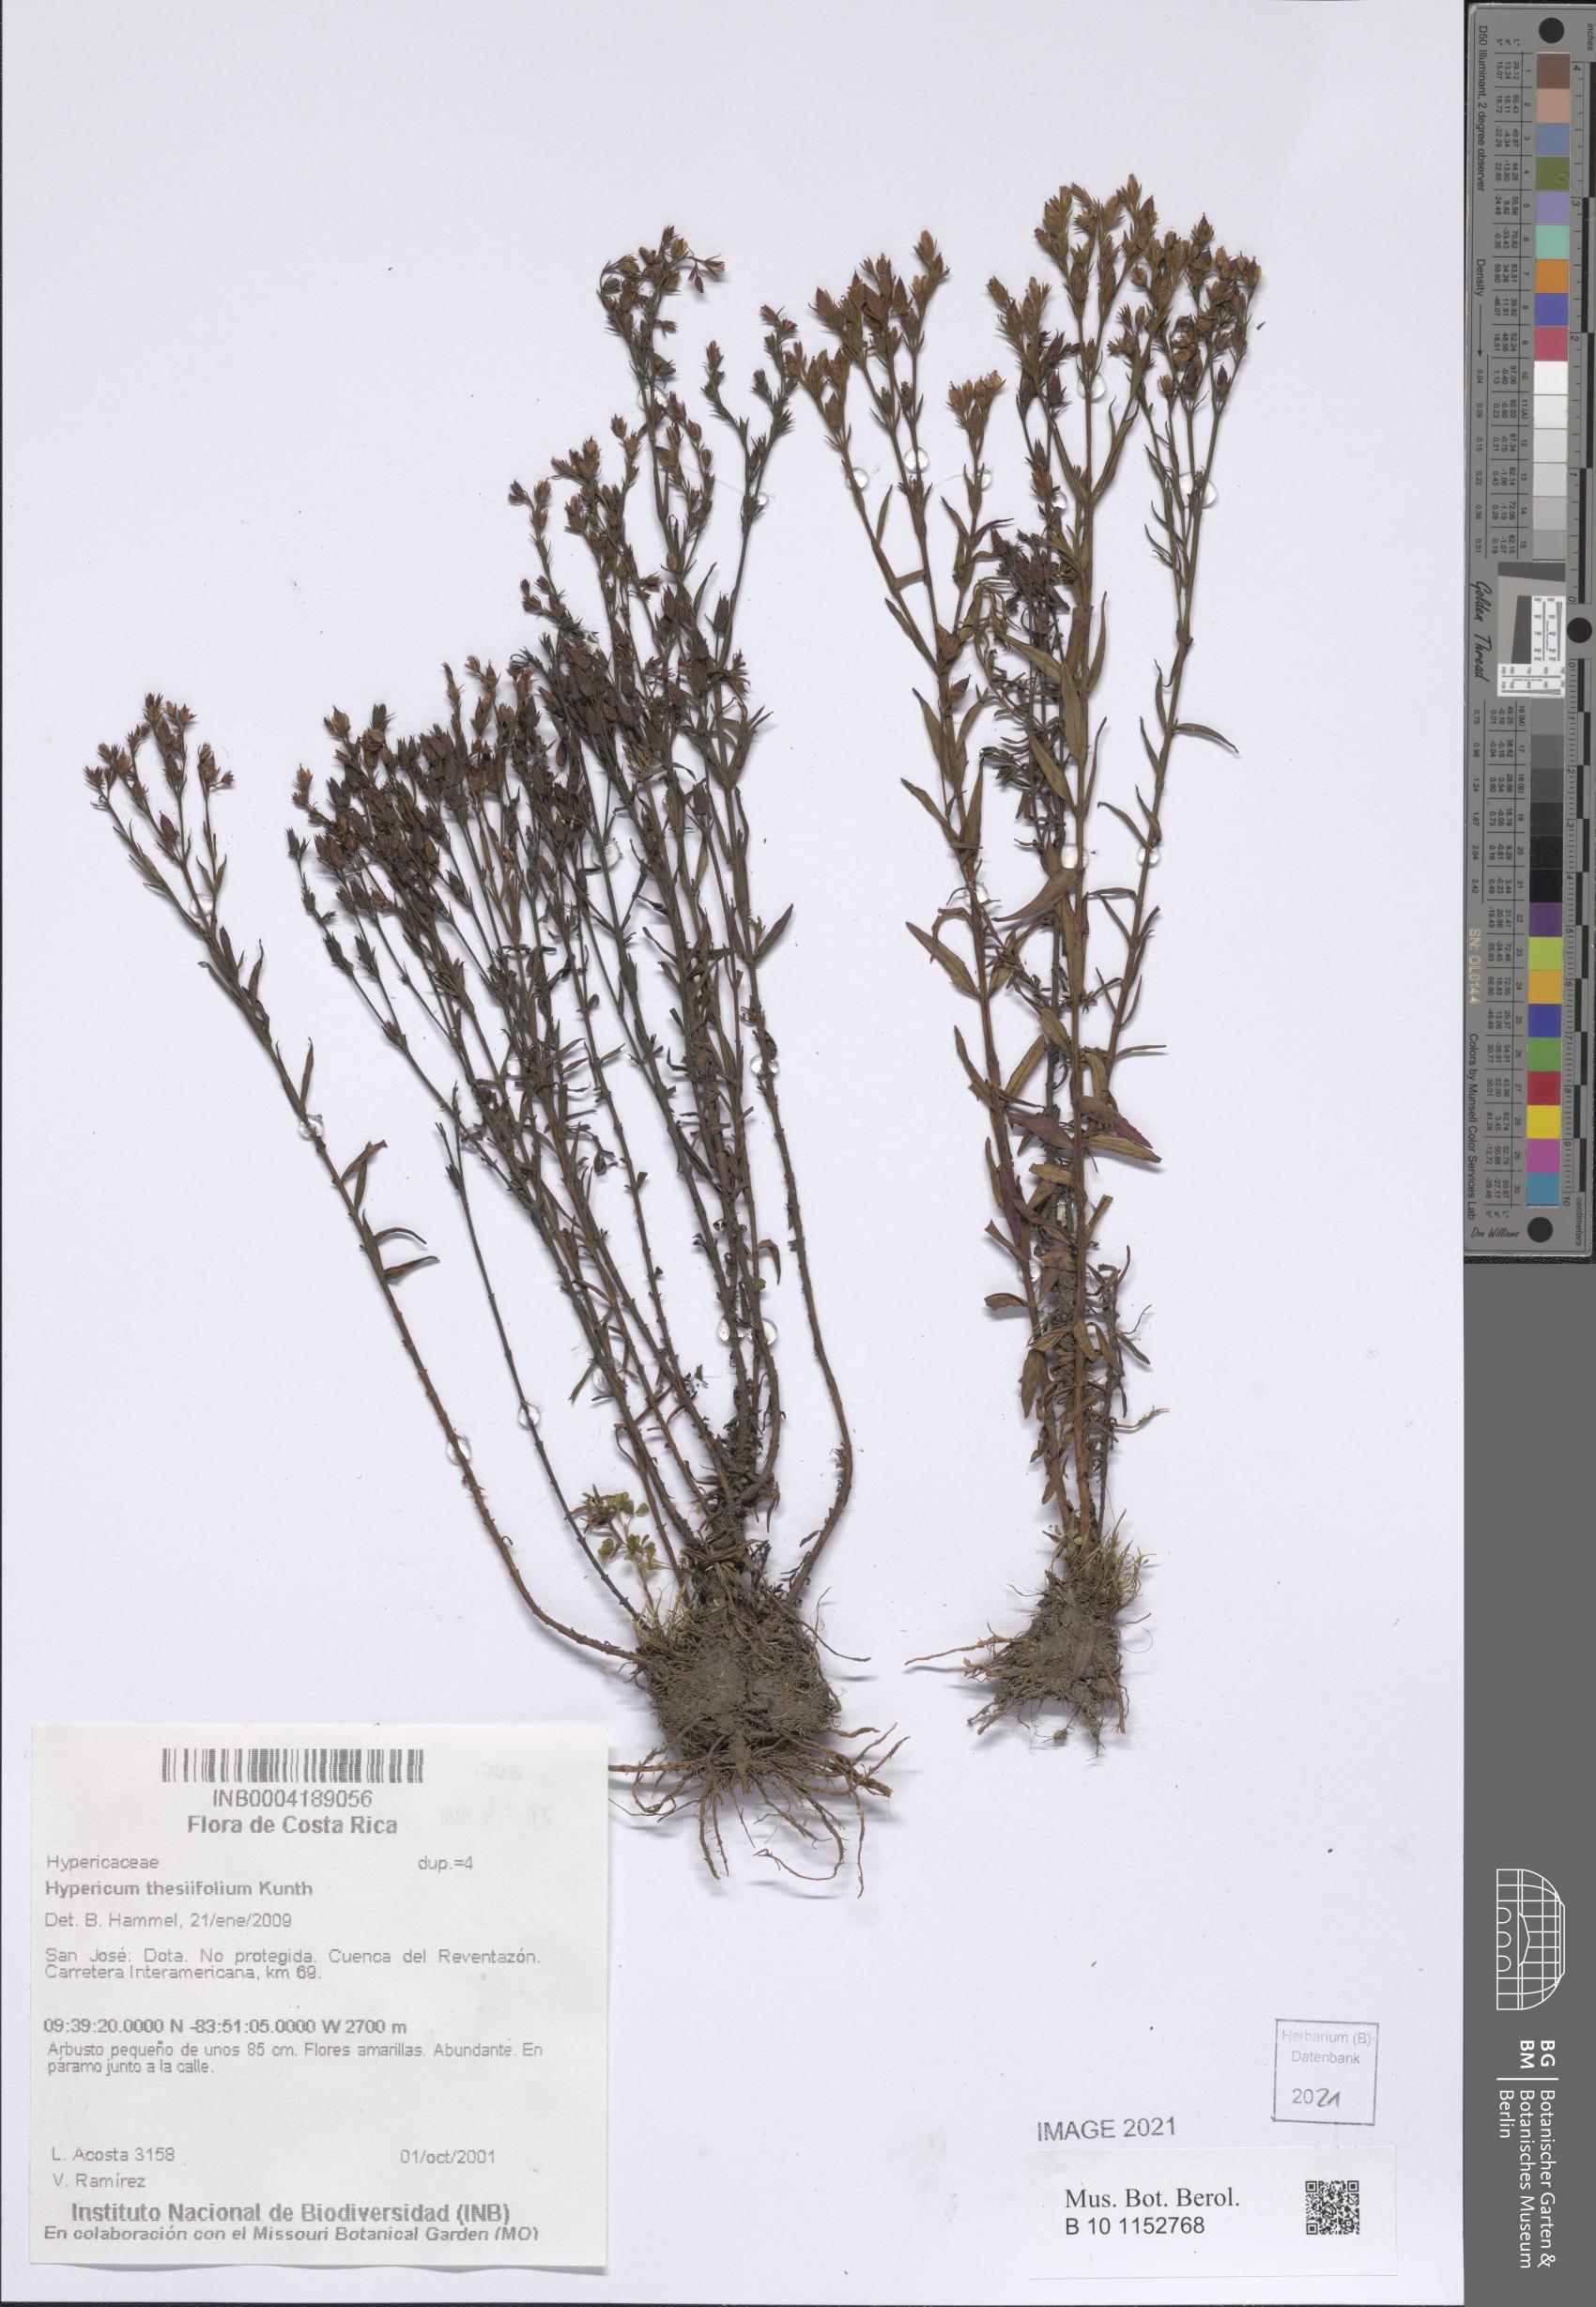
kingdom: Plantae
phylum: Tracheophyta
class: Magnoliopsida
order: Malpighiales
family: Hypericaceae
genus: Hypericum
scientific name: Hypericum thesiifolium
